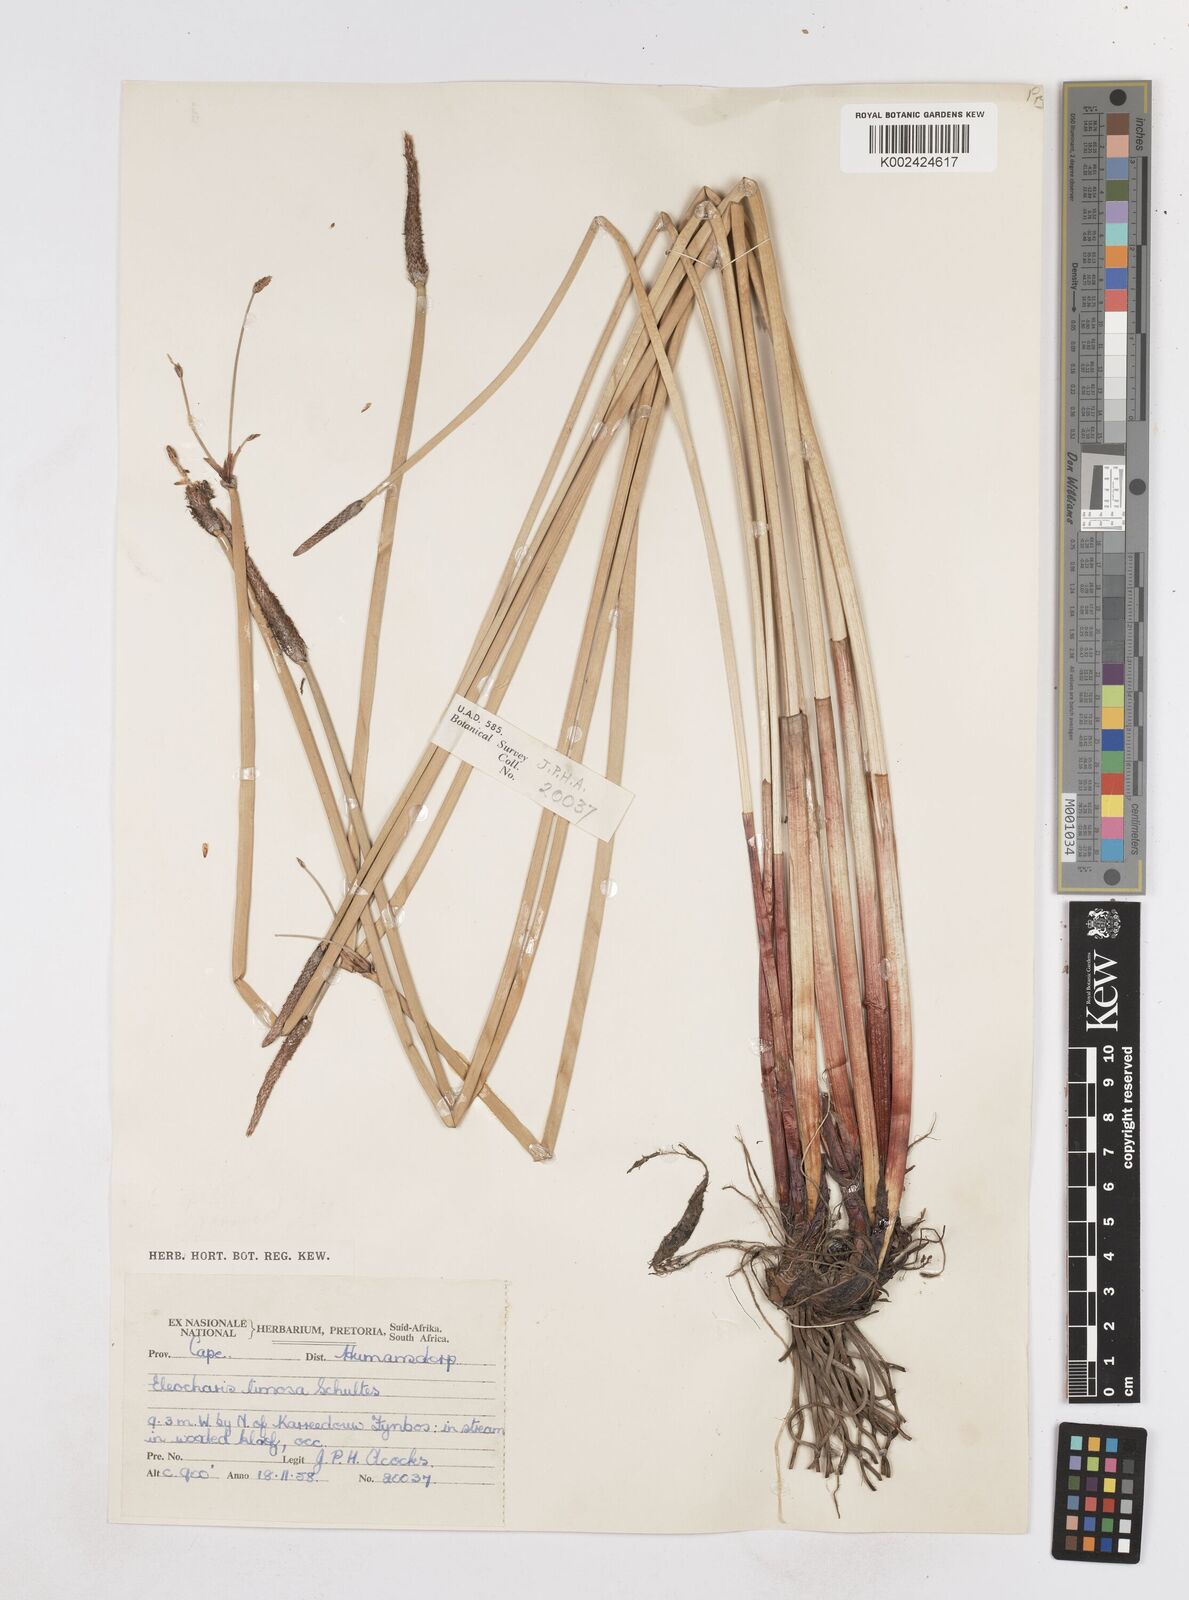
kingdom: Plantae
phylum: Tracheophyta
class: Liliopsida
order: Poales
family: Cyperaceae
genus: Eleocharis
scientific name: Eleocharis limosa
